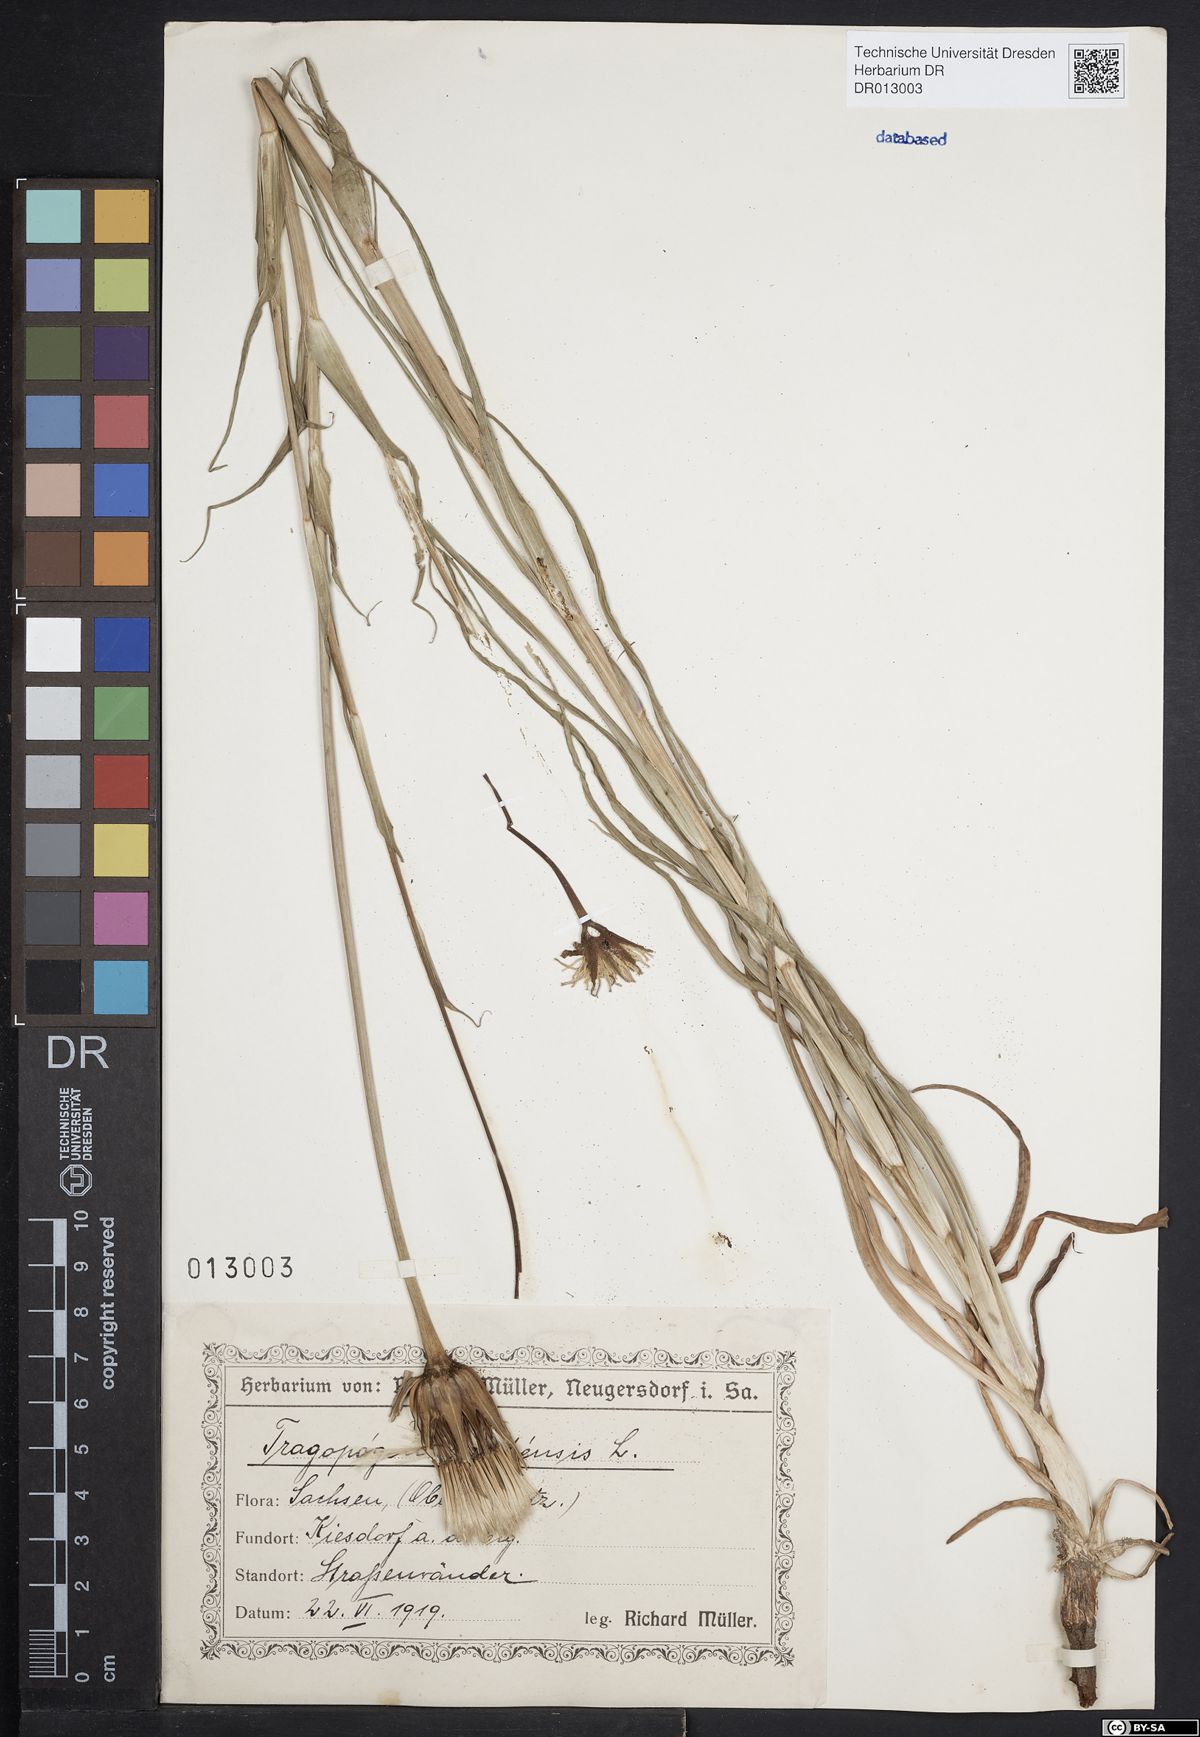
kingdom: Plantae
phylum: Tracheophyta
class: Magnoliopsida
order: Asterales
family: Asteraceae
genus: Tragopogon
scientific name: Tragopogon pratensis
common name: Goat's-beard
